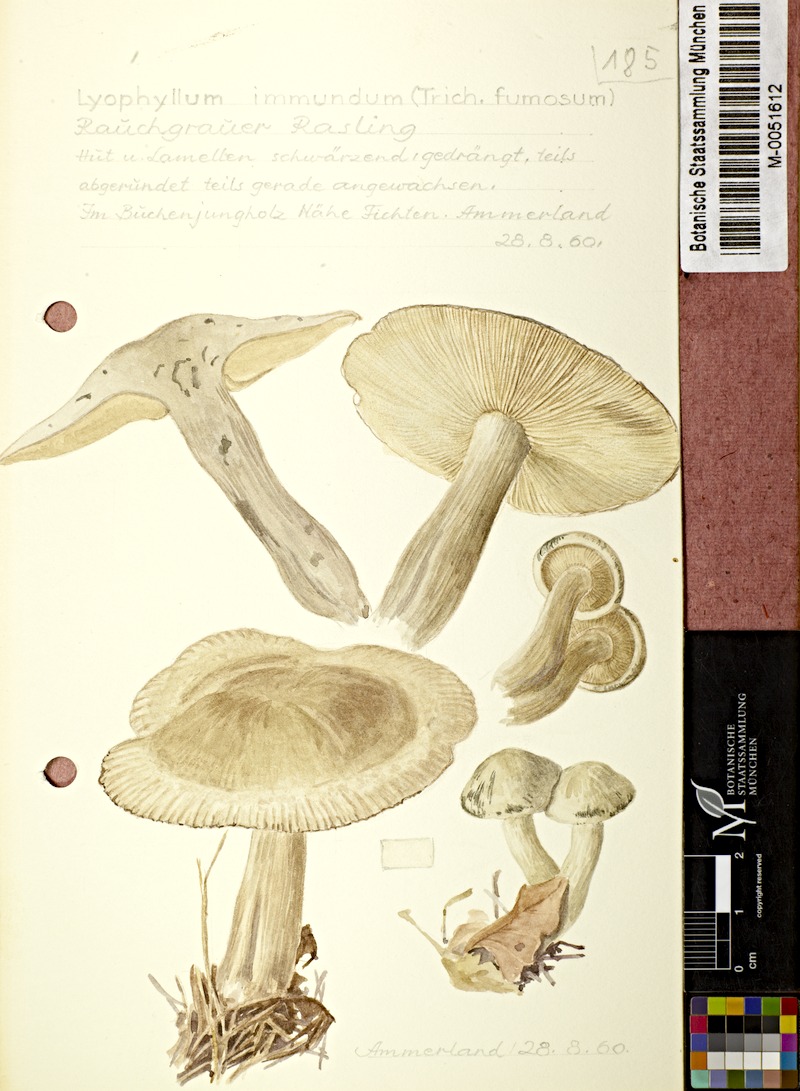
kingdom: Fungi
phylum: Basidiomycota
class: Agaricomycetes
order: Agaricales
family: Lyophyllaceae
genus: Lyophyllum
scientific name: Lyophyllum immundum
